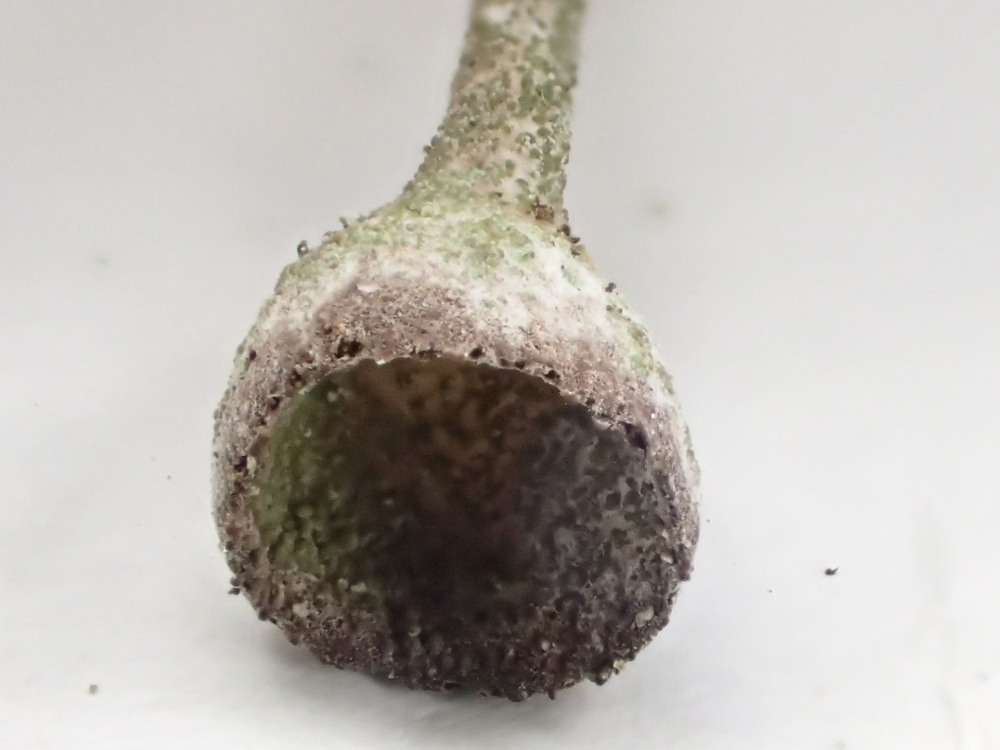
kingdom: Fungi
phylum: Ascomycota
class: Lecanoromycetes
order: Lecanorales
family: Cladoniaceae
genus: Cladonia
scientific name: Cladonia merochlorophaea
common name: mørk bægerlav
